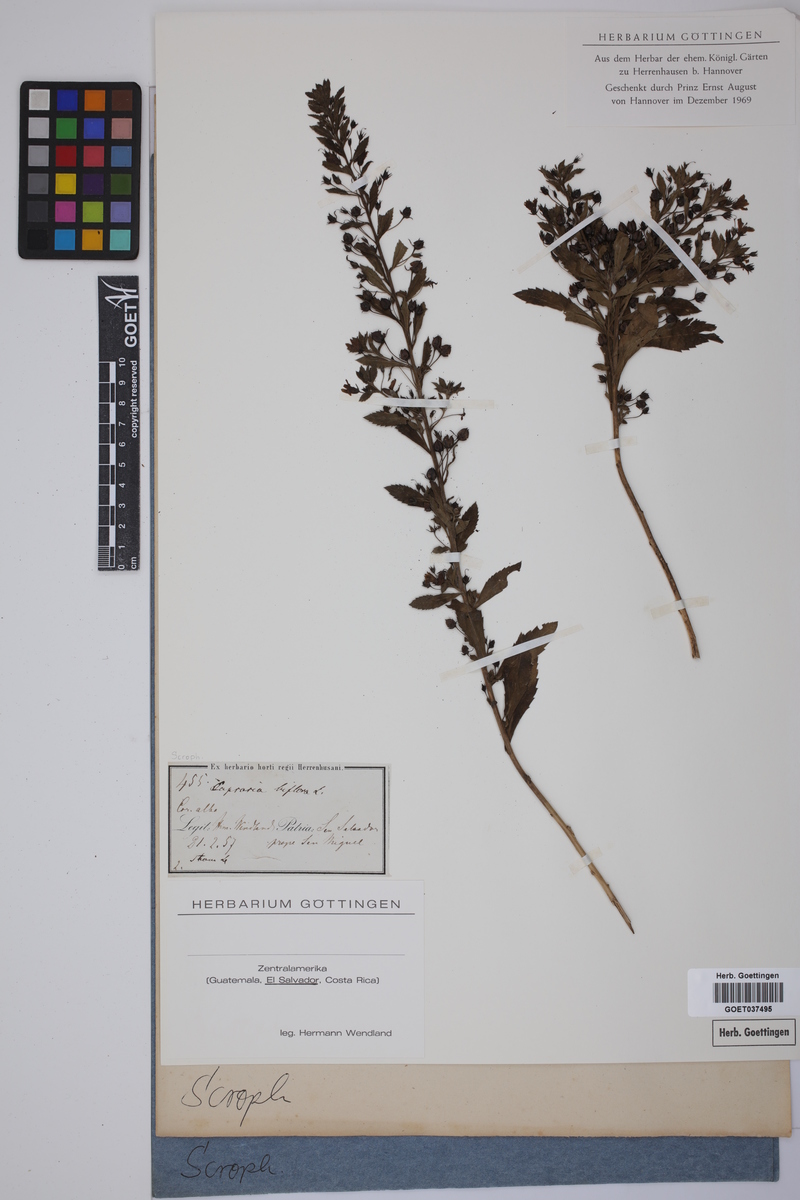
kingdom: Plantae
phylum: Tracheophyta
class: Magnoliopsida
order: Lamiales
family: Scrophulariaceae
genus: Capraria
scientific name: Capraria biflora
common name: Goatweed
